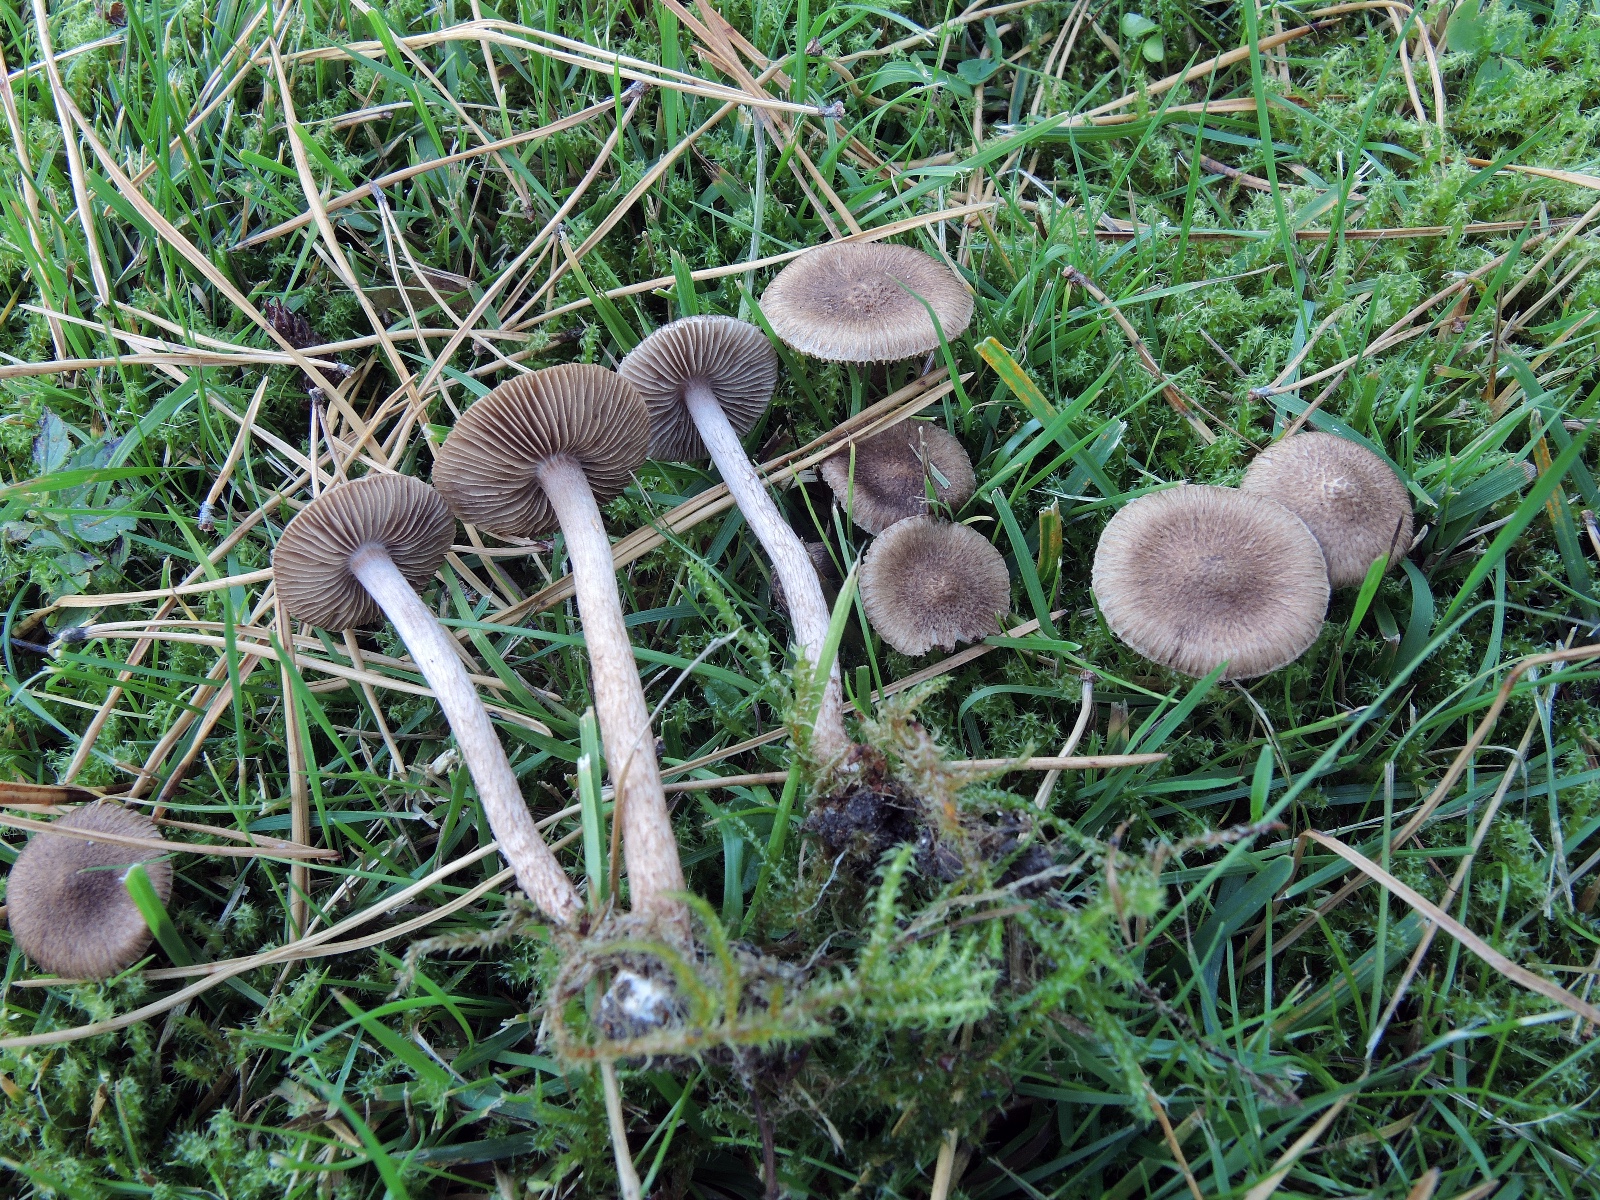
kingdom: Fungi
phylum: Basidiomycota
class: Agaricomycetes
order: Agaricales
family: Inocybaceae
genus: Inocybe
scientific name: Inocybe cincinnata
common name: lillabladet trævlhat
